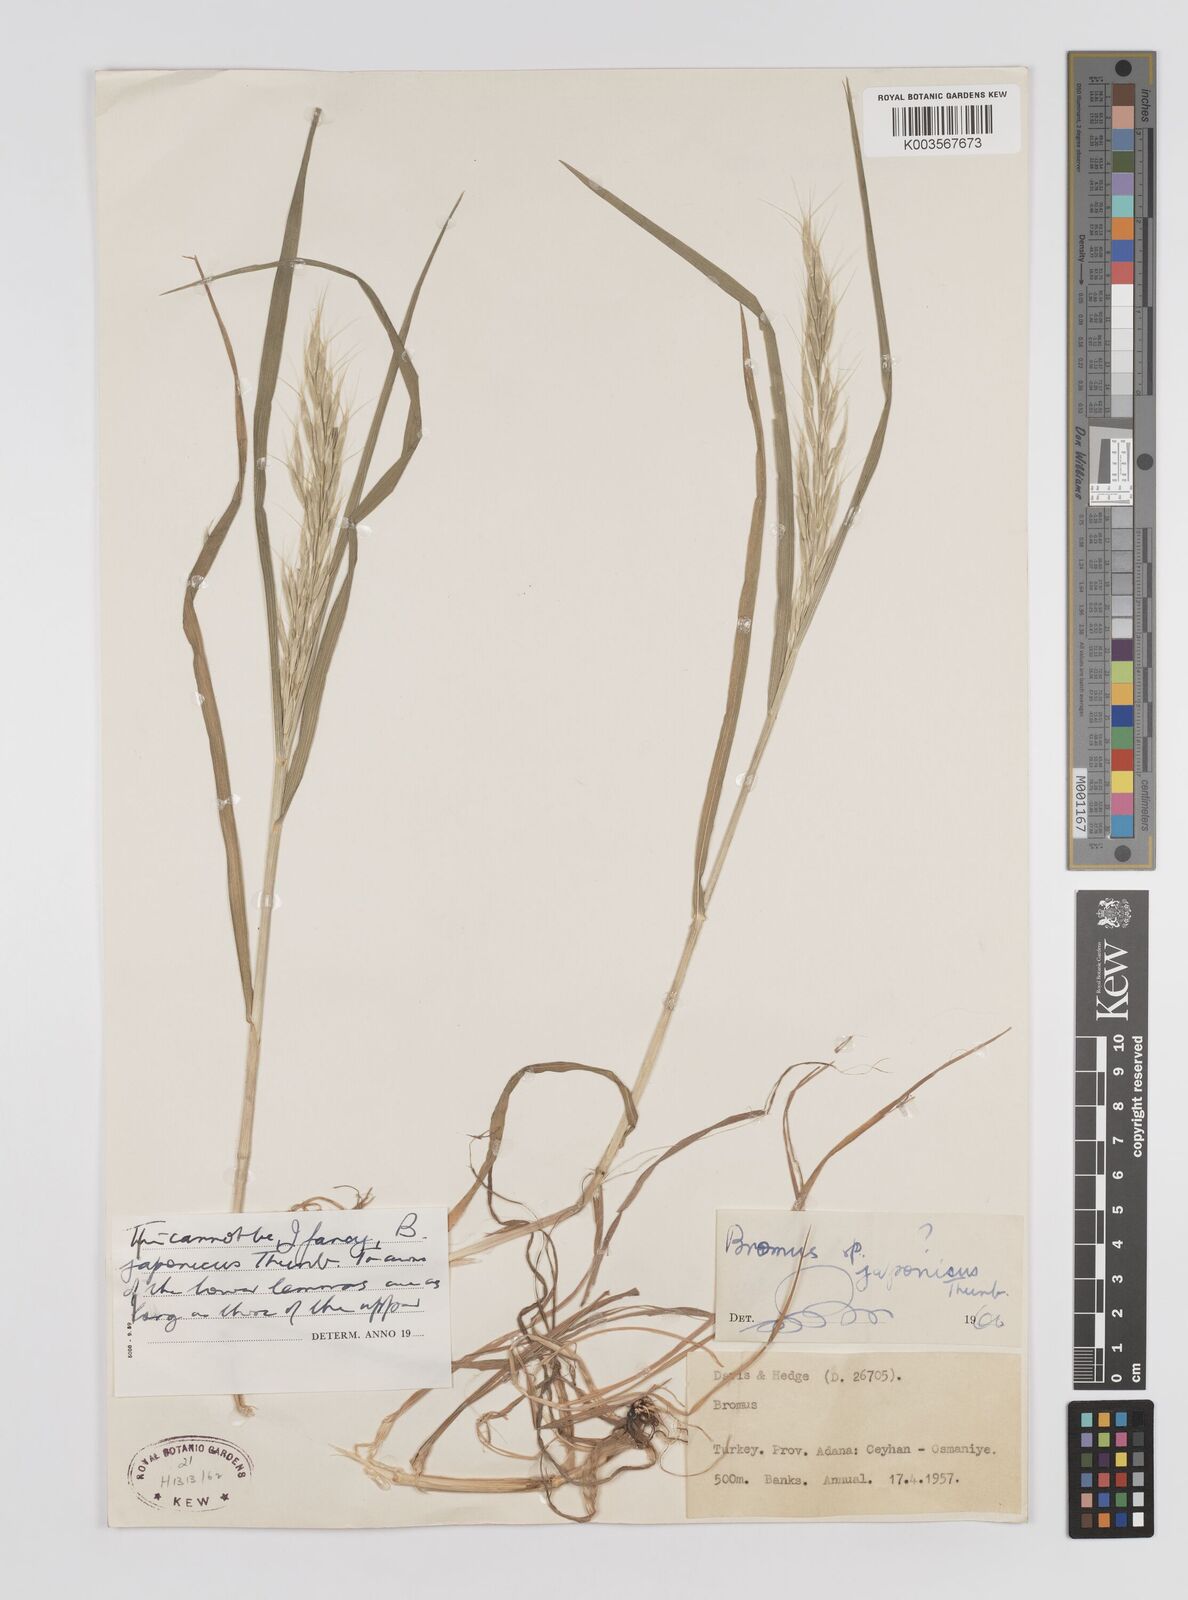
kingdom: Plantae
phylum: Tracheophyta
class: Liliopsida
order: Poales
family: Poaceae
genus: Bromus
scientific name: Bromus
